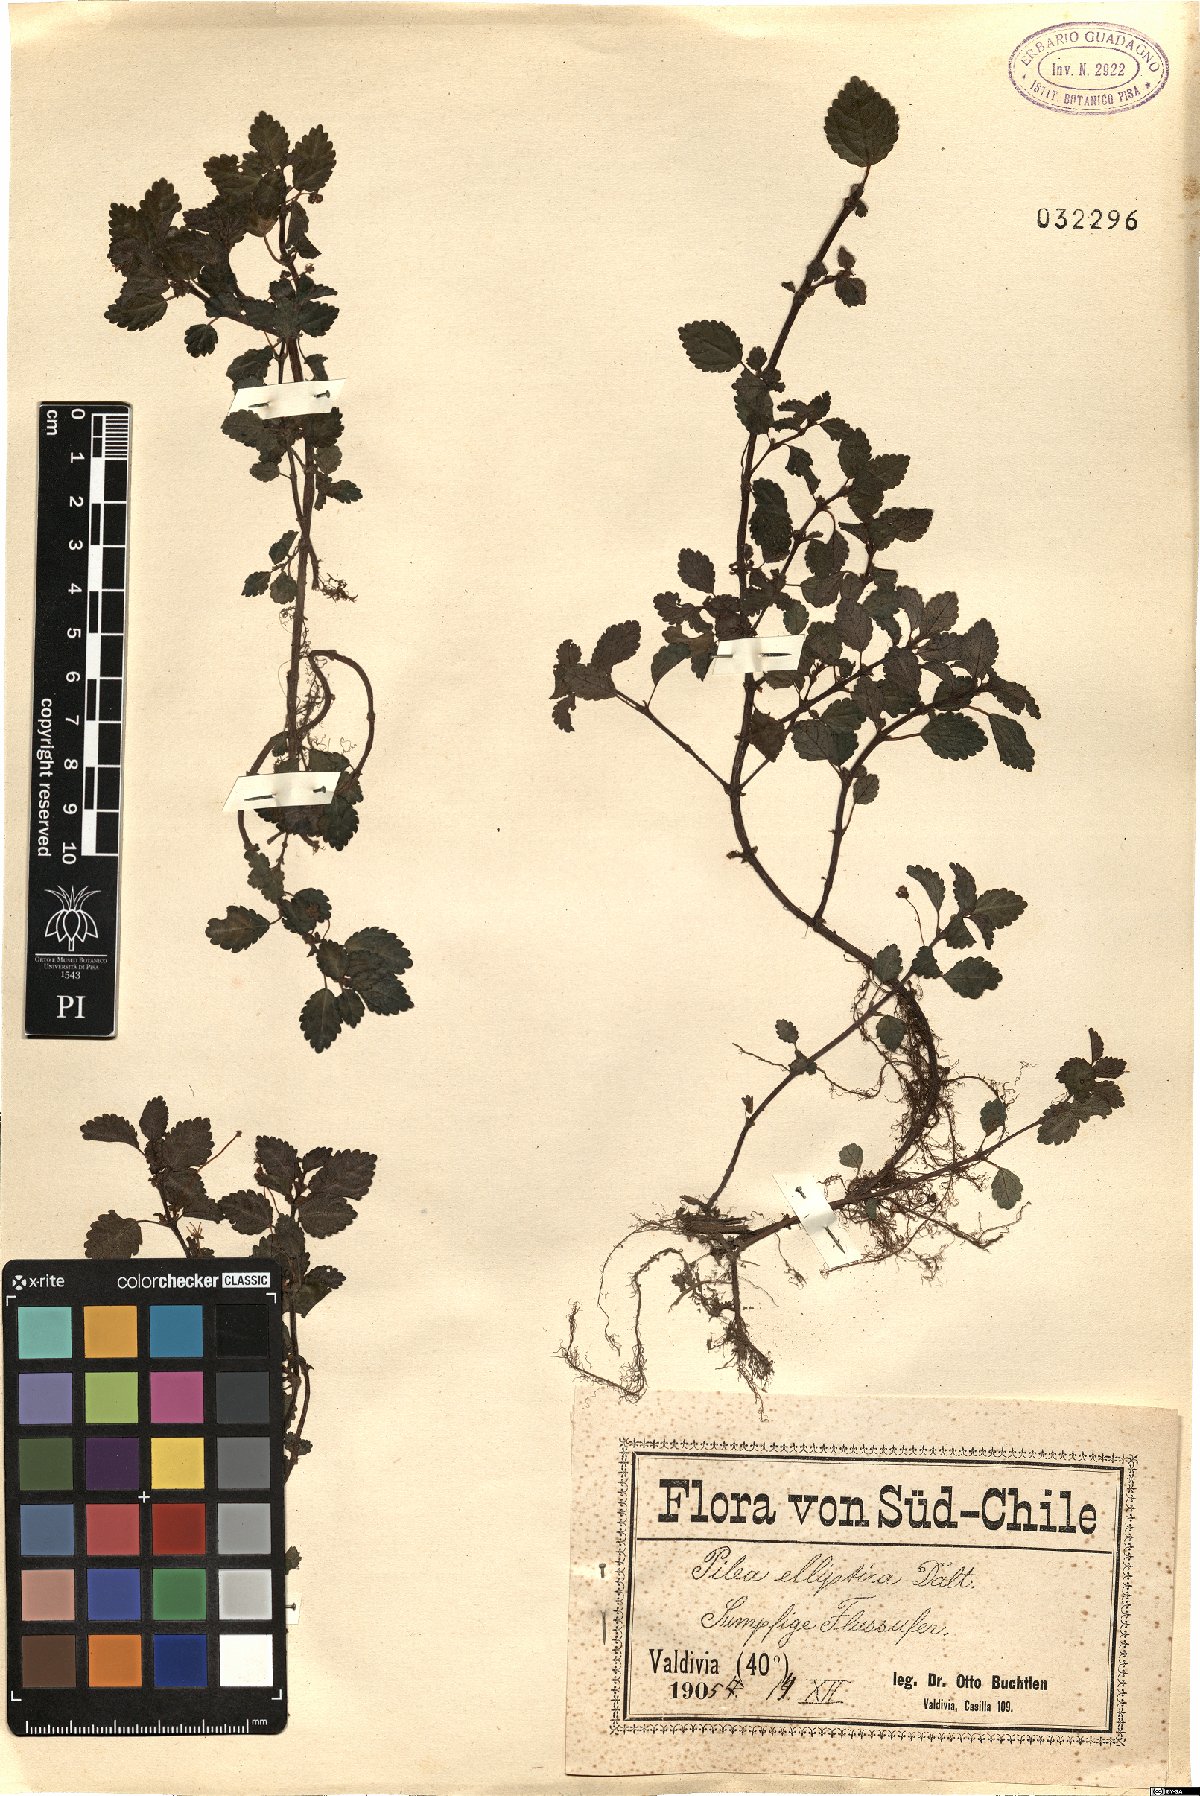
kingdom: Plantae
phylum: Tracheophyta
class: Magnoliopsida
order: Rosales
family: Urticaceae
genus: Pilea
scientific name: Pilea elliptica
